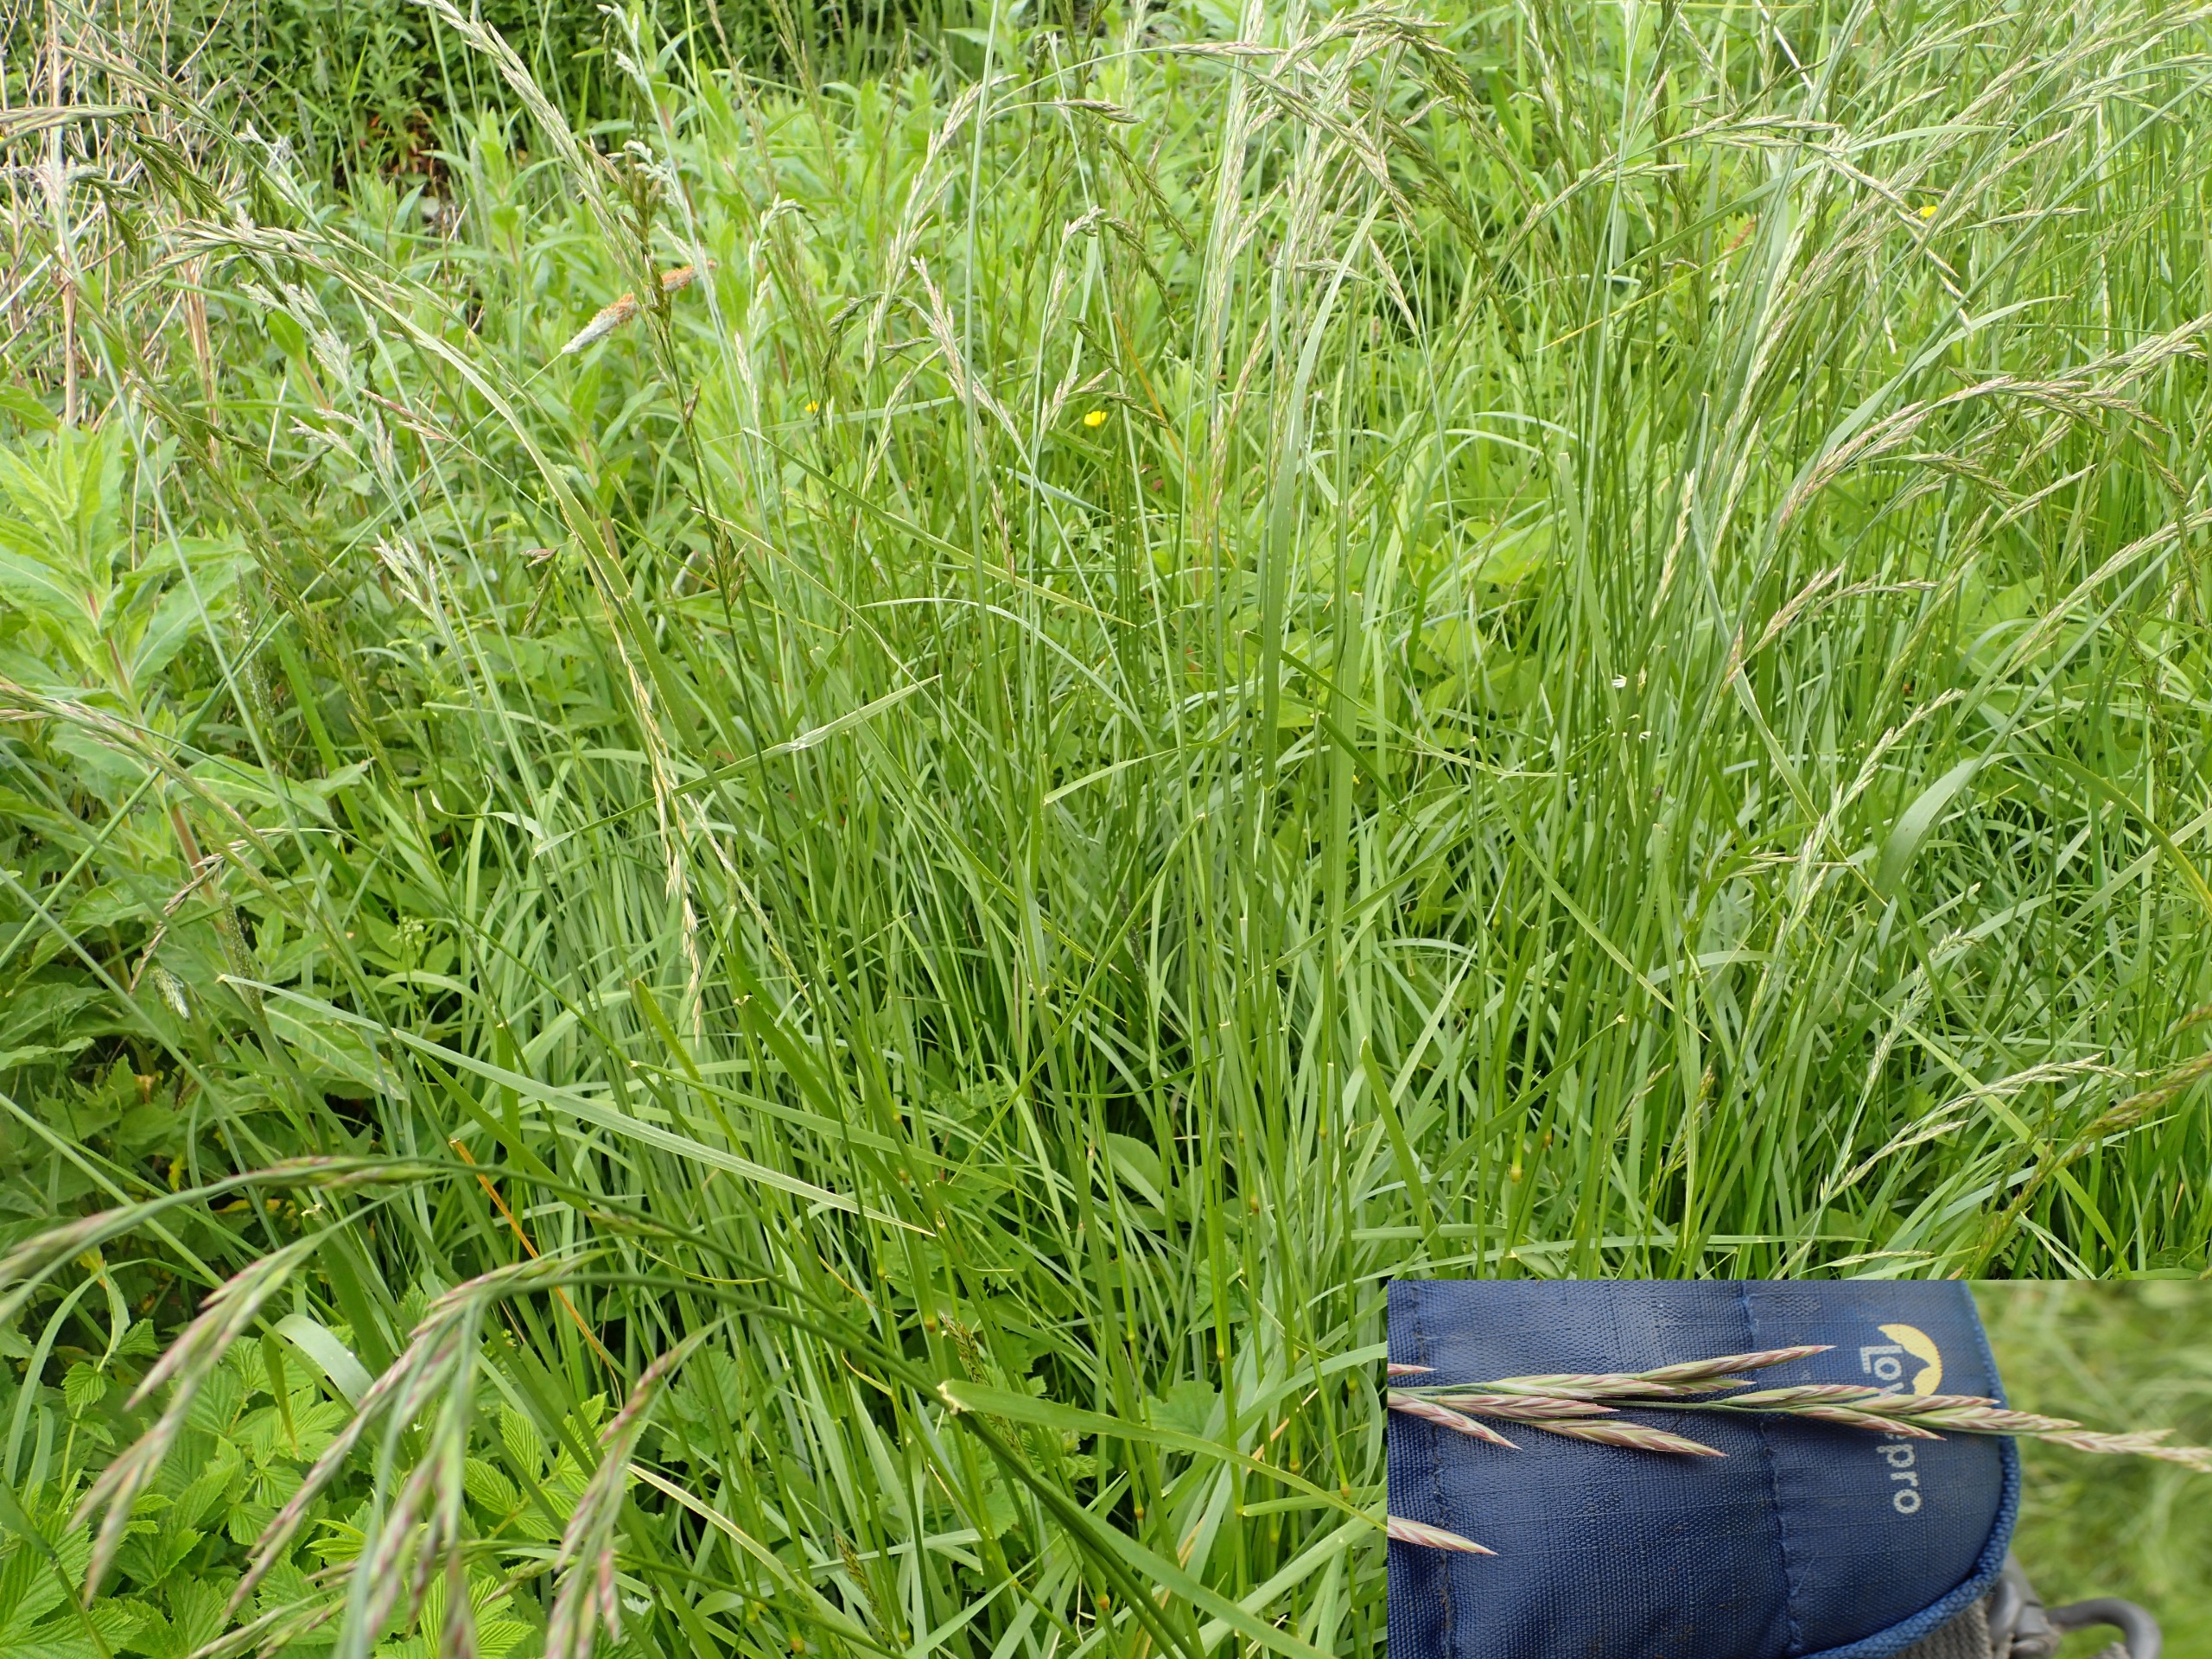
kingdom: Plantae
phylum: Tracheophyta
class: Liliopsida
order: Poales
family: Poaceae
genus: Lolium
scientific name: Lolium arundinaceum
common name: Strand-svingel
